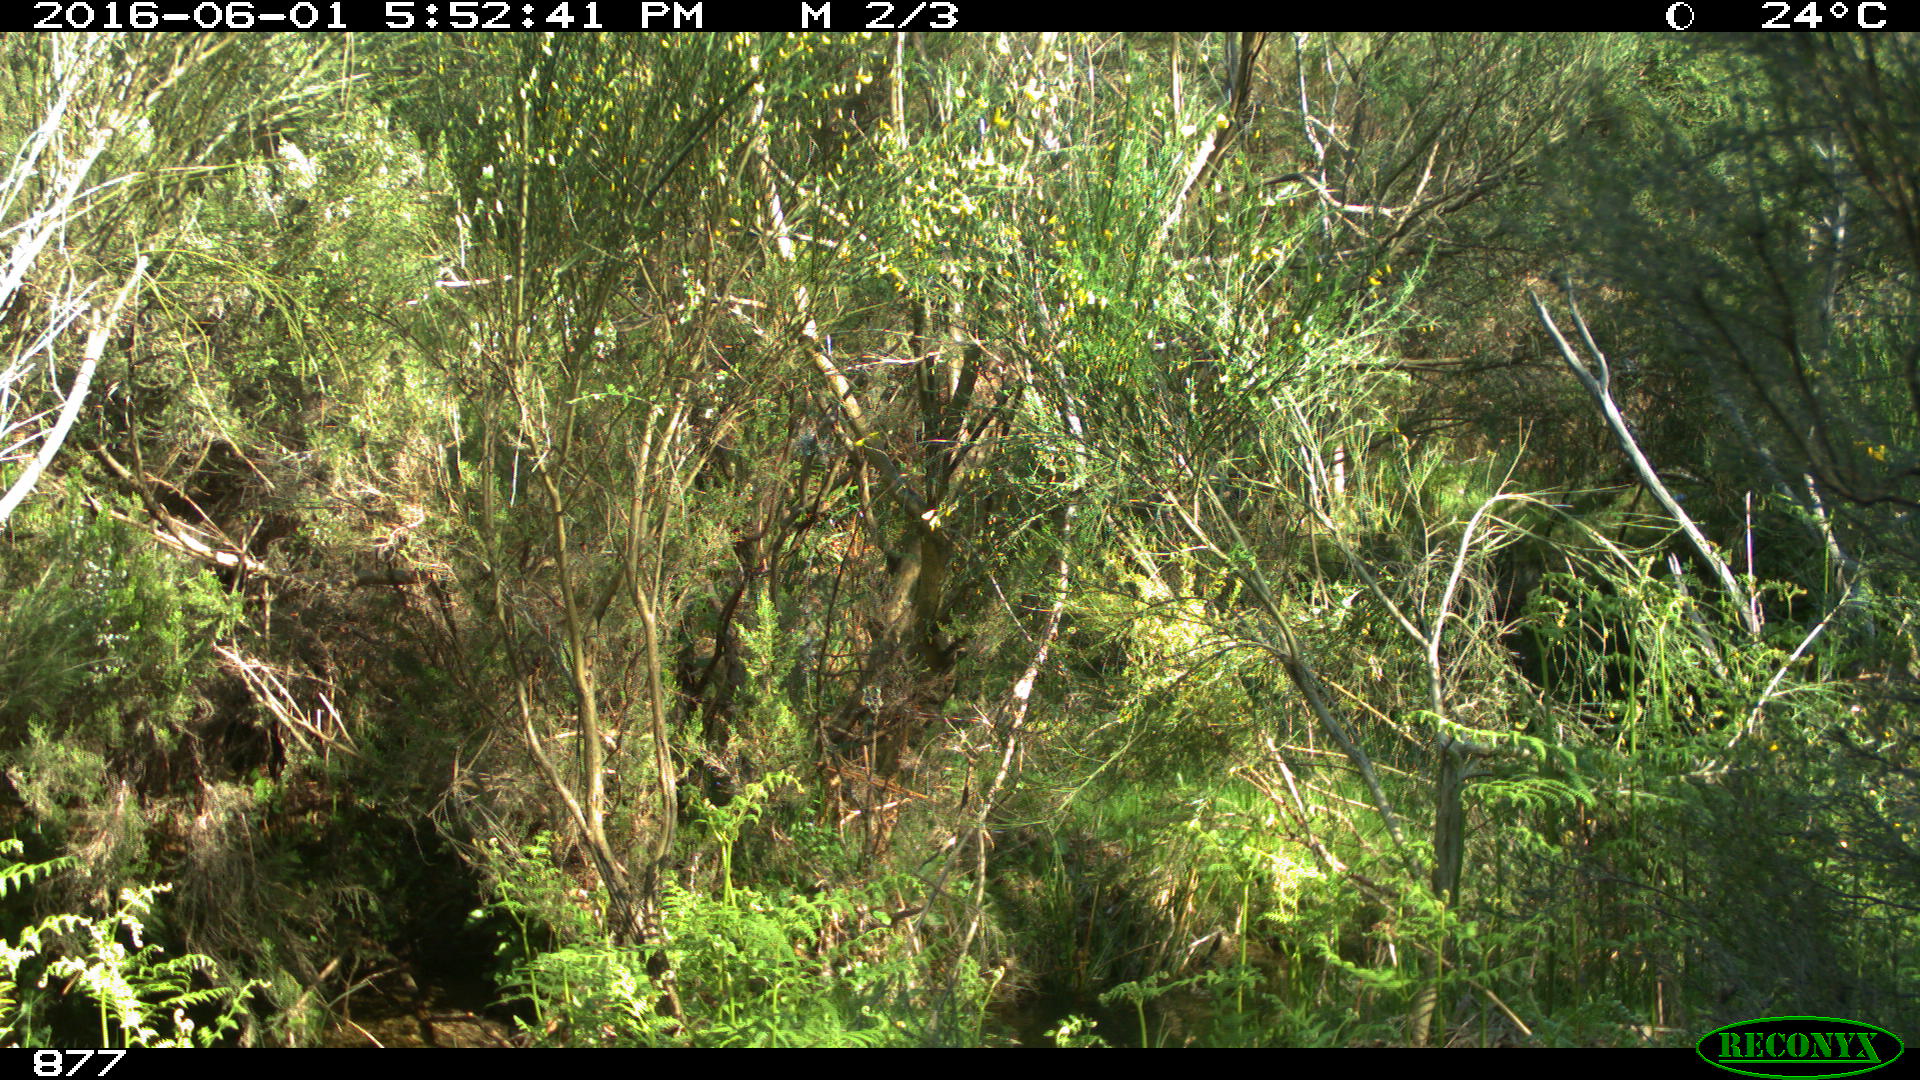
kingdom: Animalia
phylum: Chordata
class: Mammalia
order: Perissodactyla
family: Equidae
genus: Equus
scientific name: Equus caballus
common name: Horse
